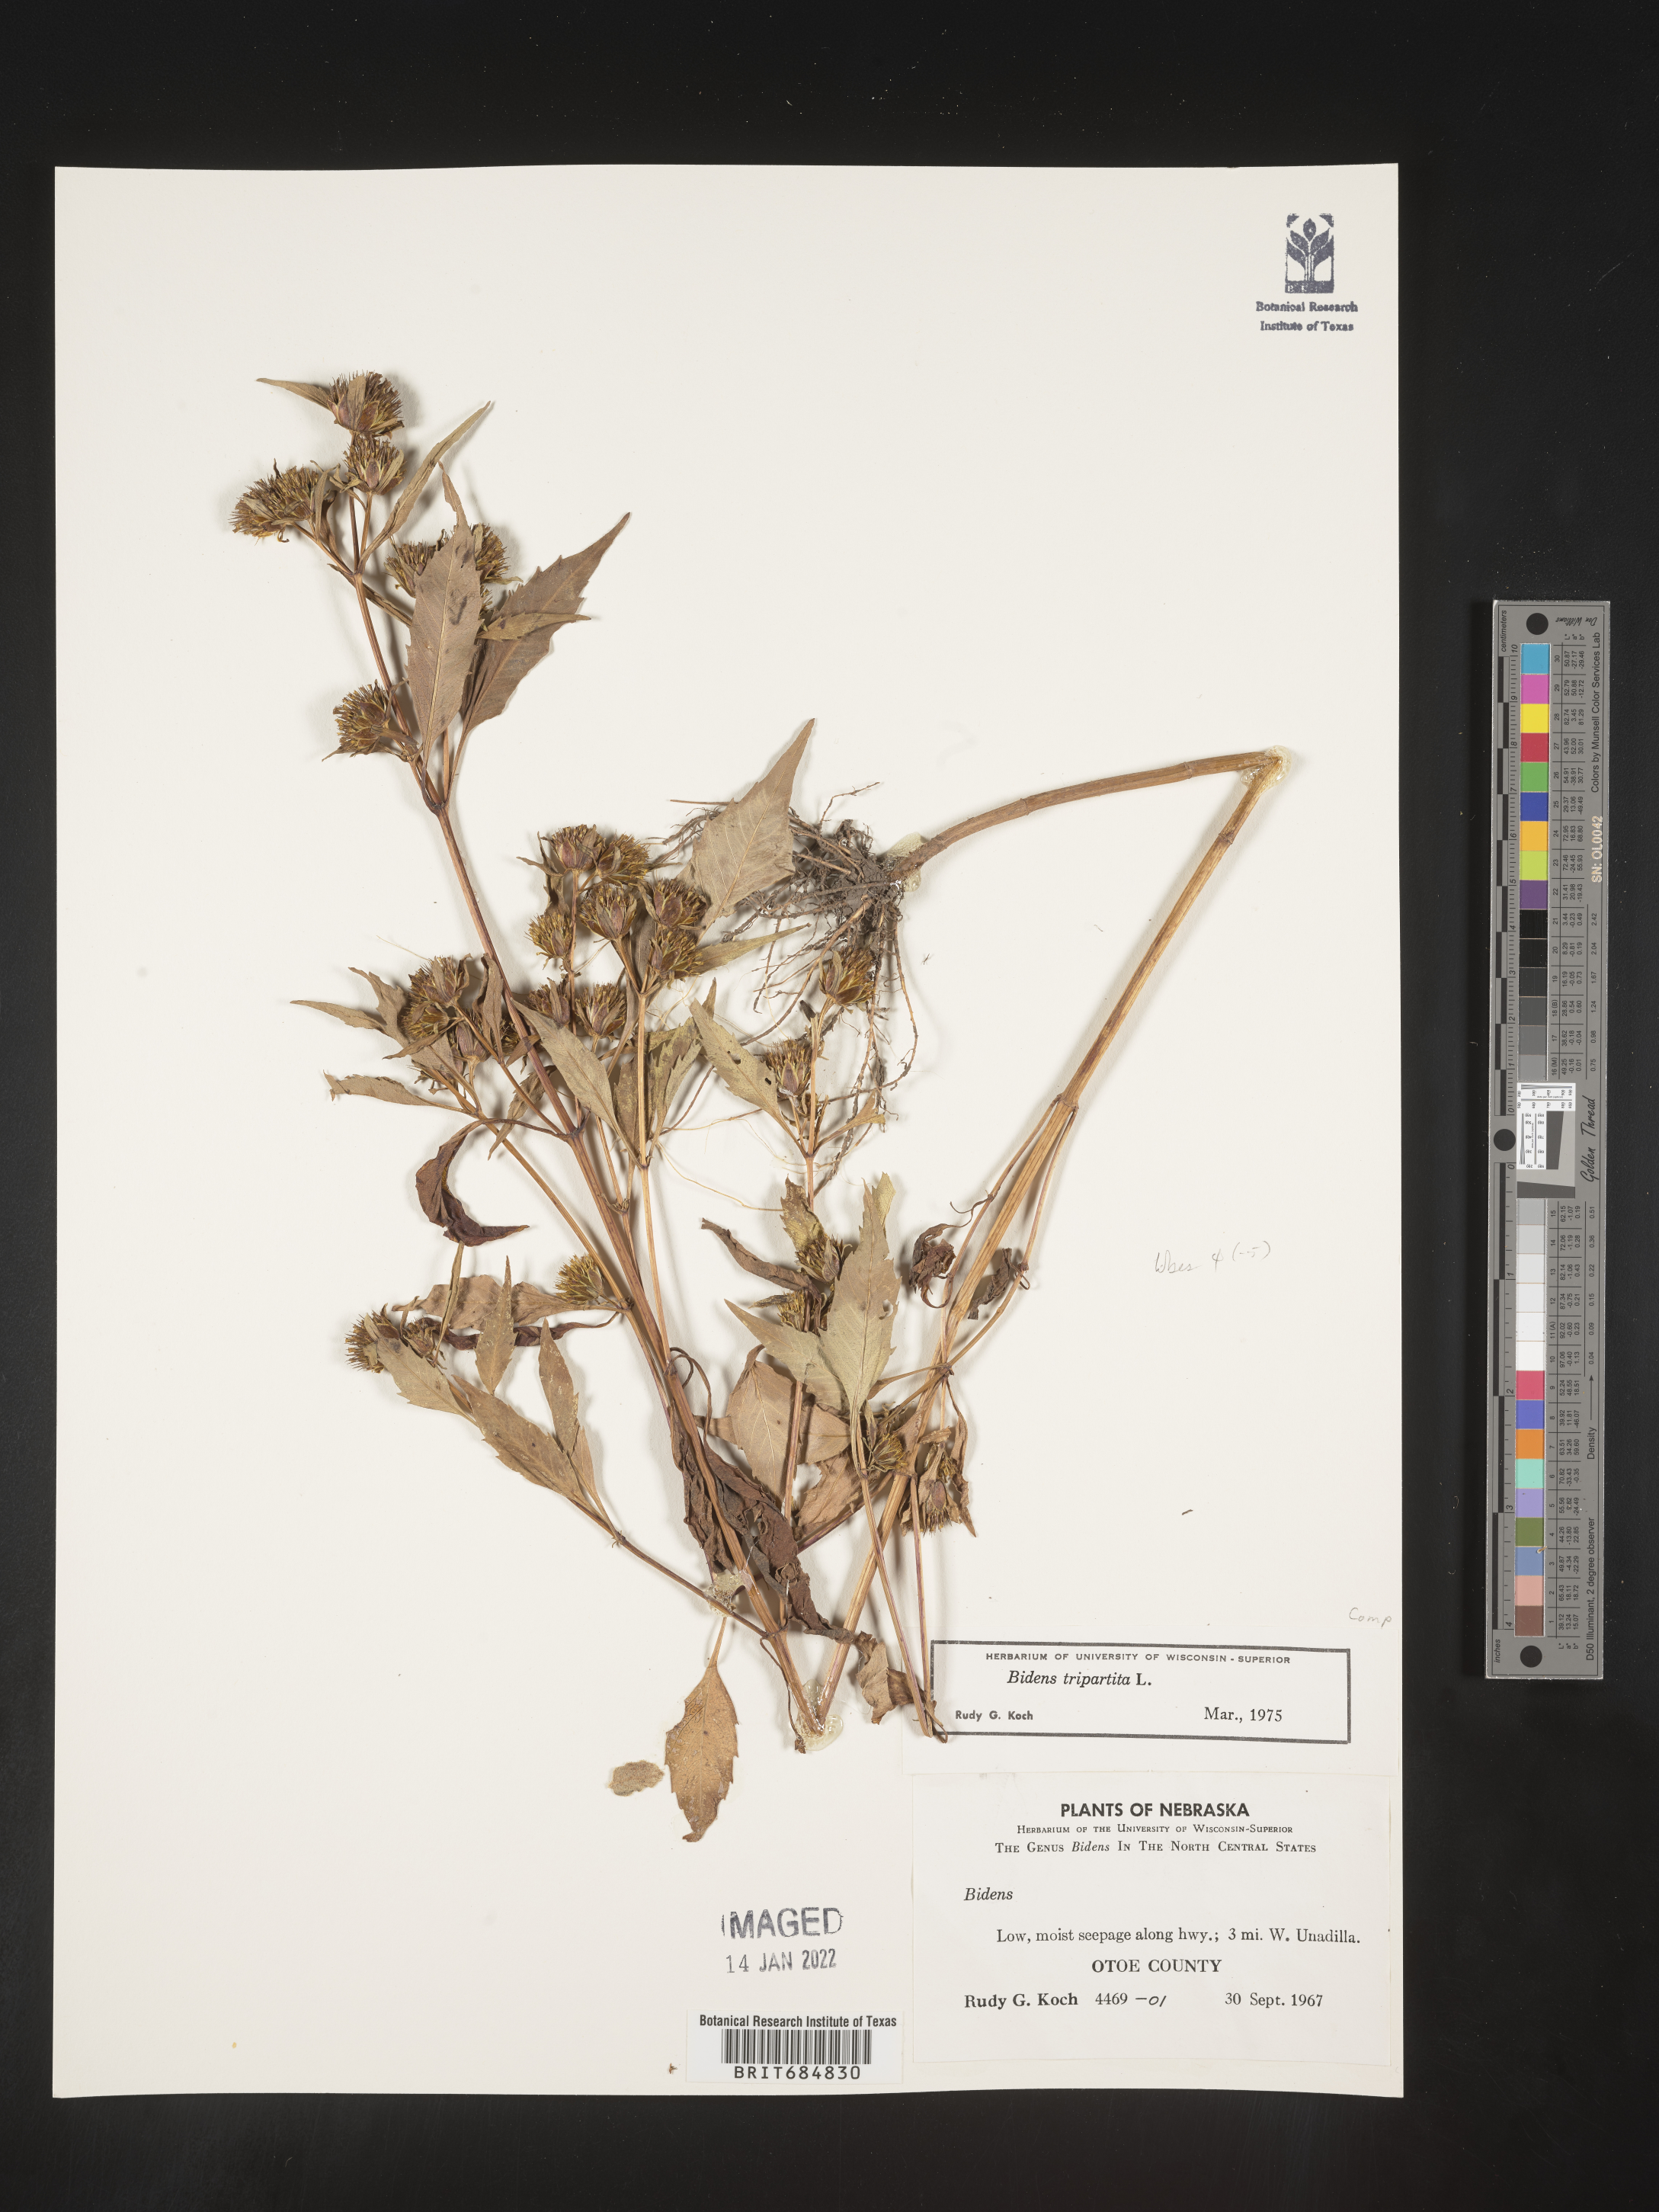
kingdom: Plantae
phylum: Tracheophyta
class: Magnoliopsida
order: Asterales
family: Asteraceae
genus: Bidens
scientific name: Bidens tripartita
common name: Trifid bur-marigold
